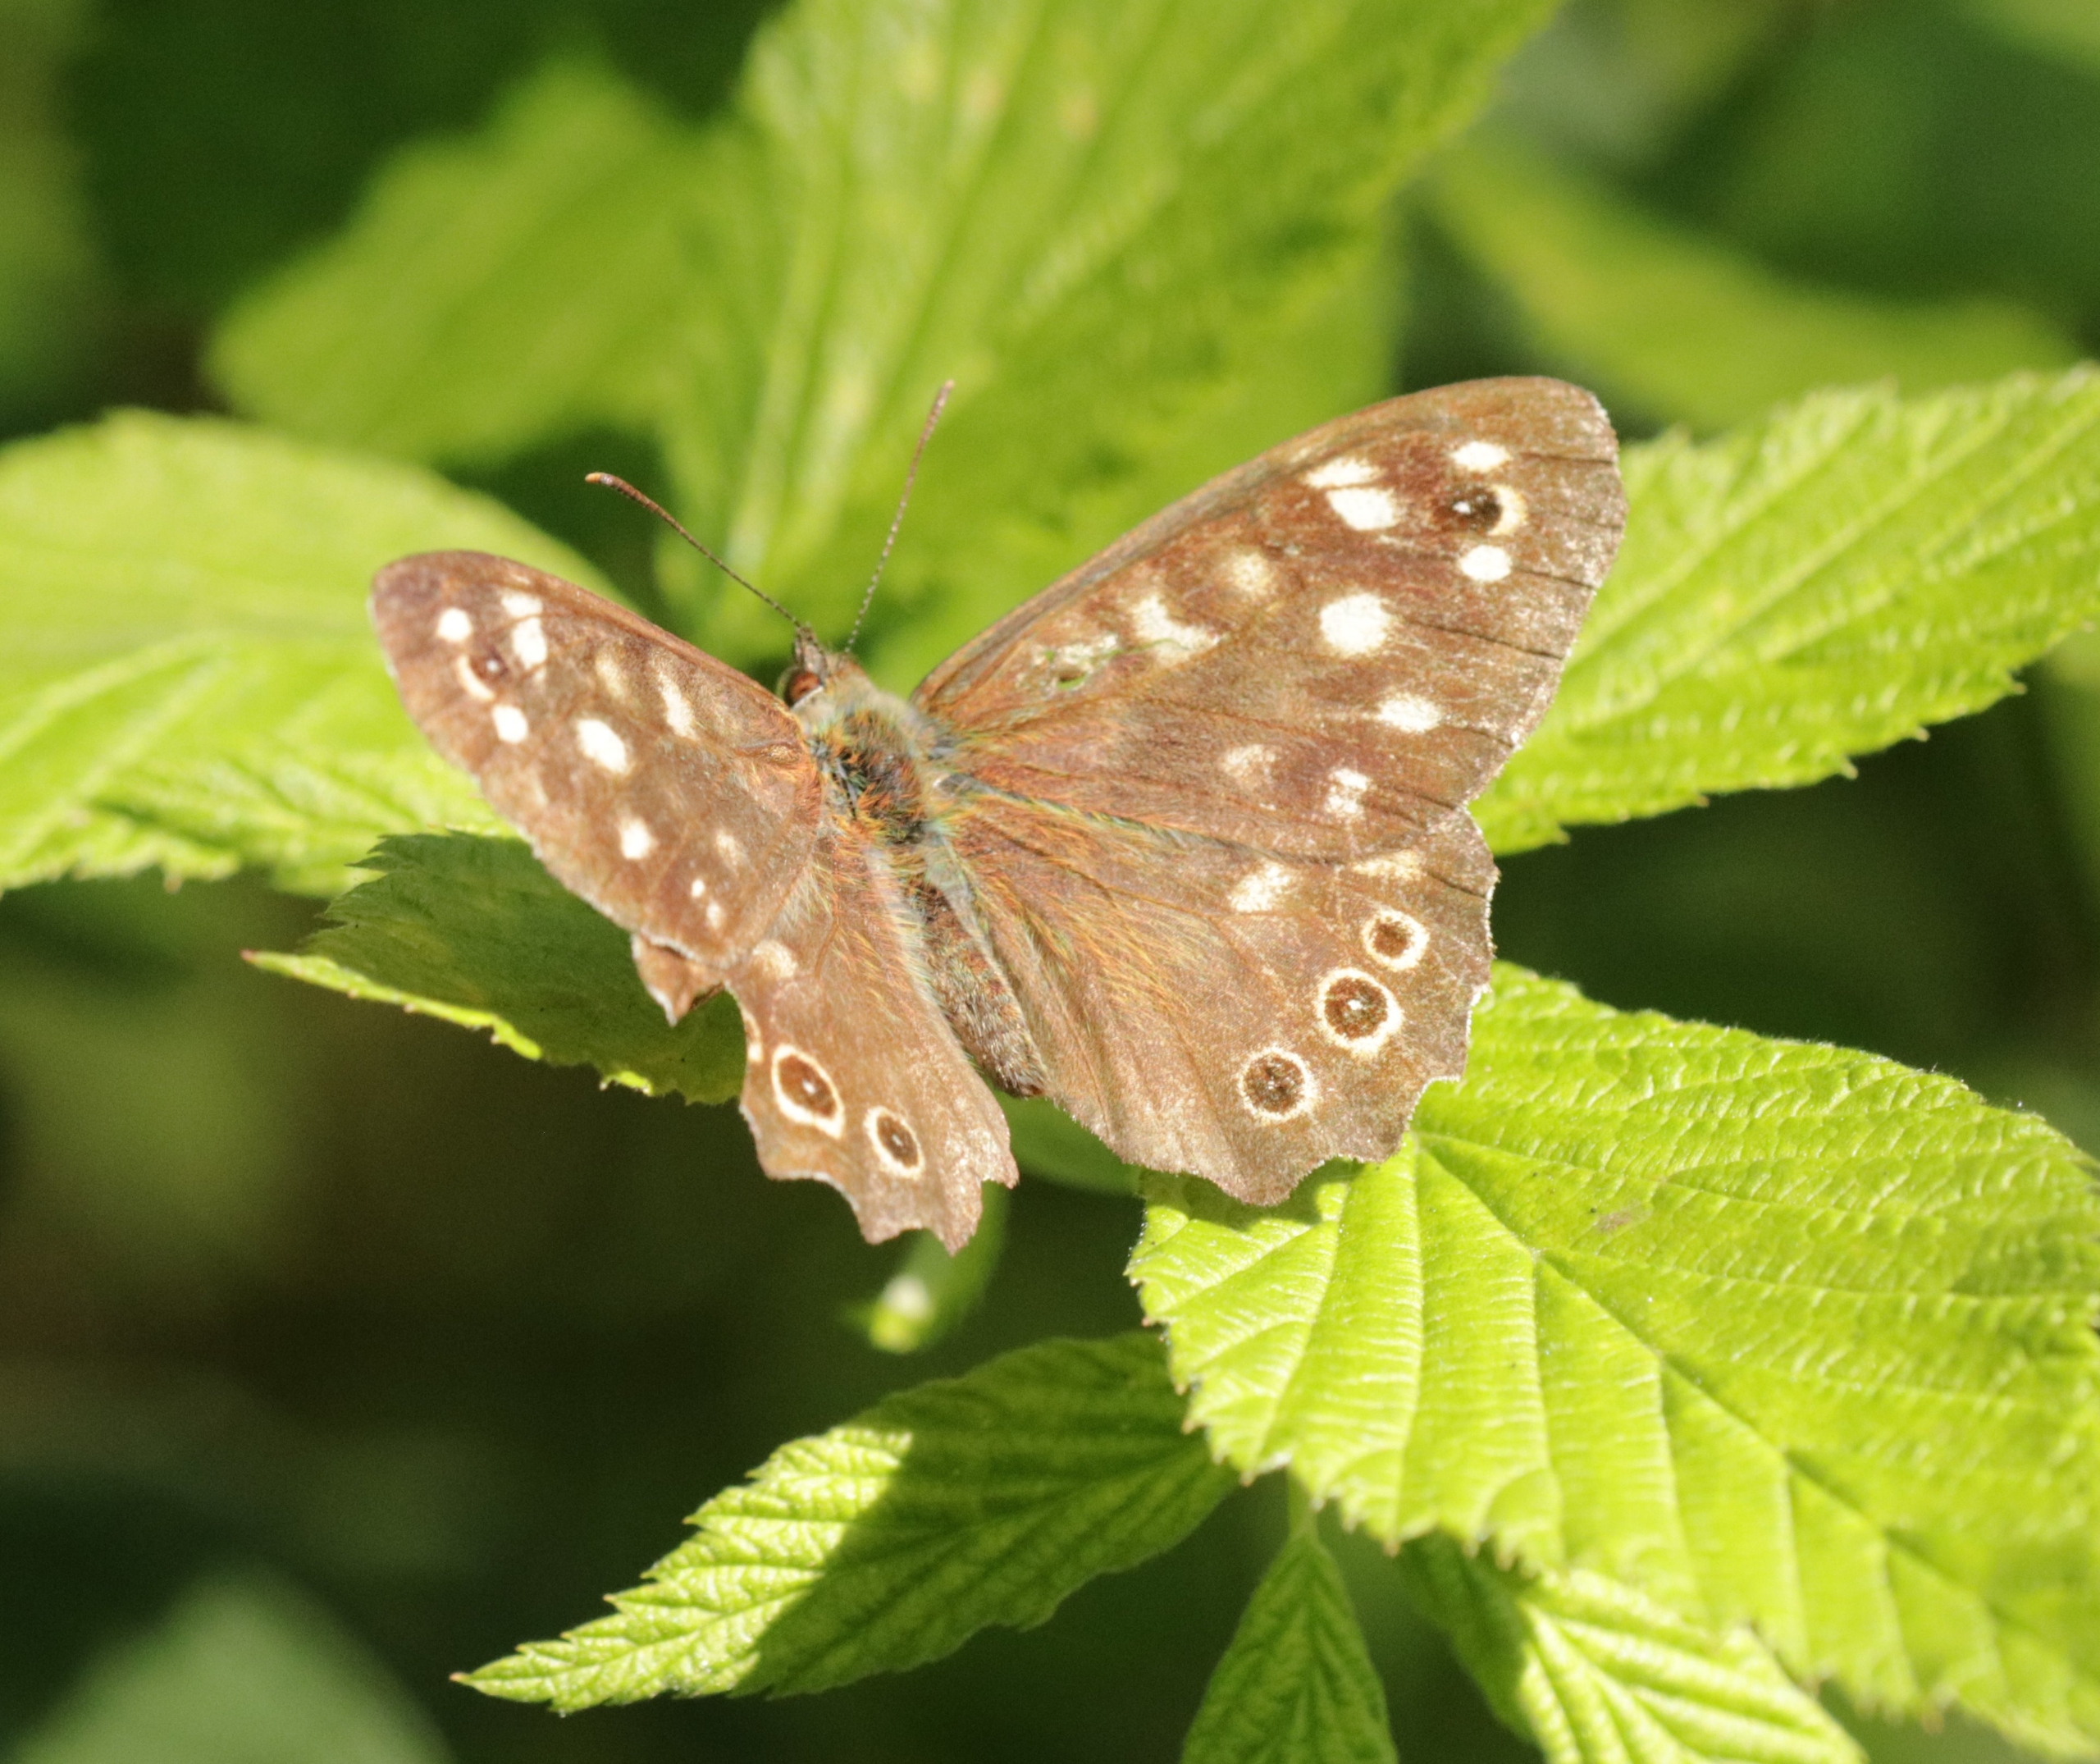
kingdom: Animalia
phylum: Arthropoda
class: Insecta
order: Lepidoptera
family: Nymphalidae
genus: Pararge
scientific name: Pararge aegeria
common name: Skovrandøje
